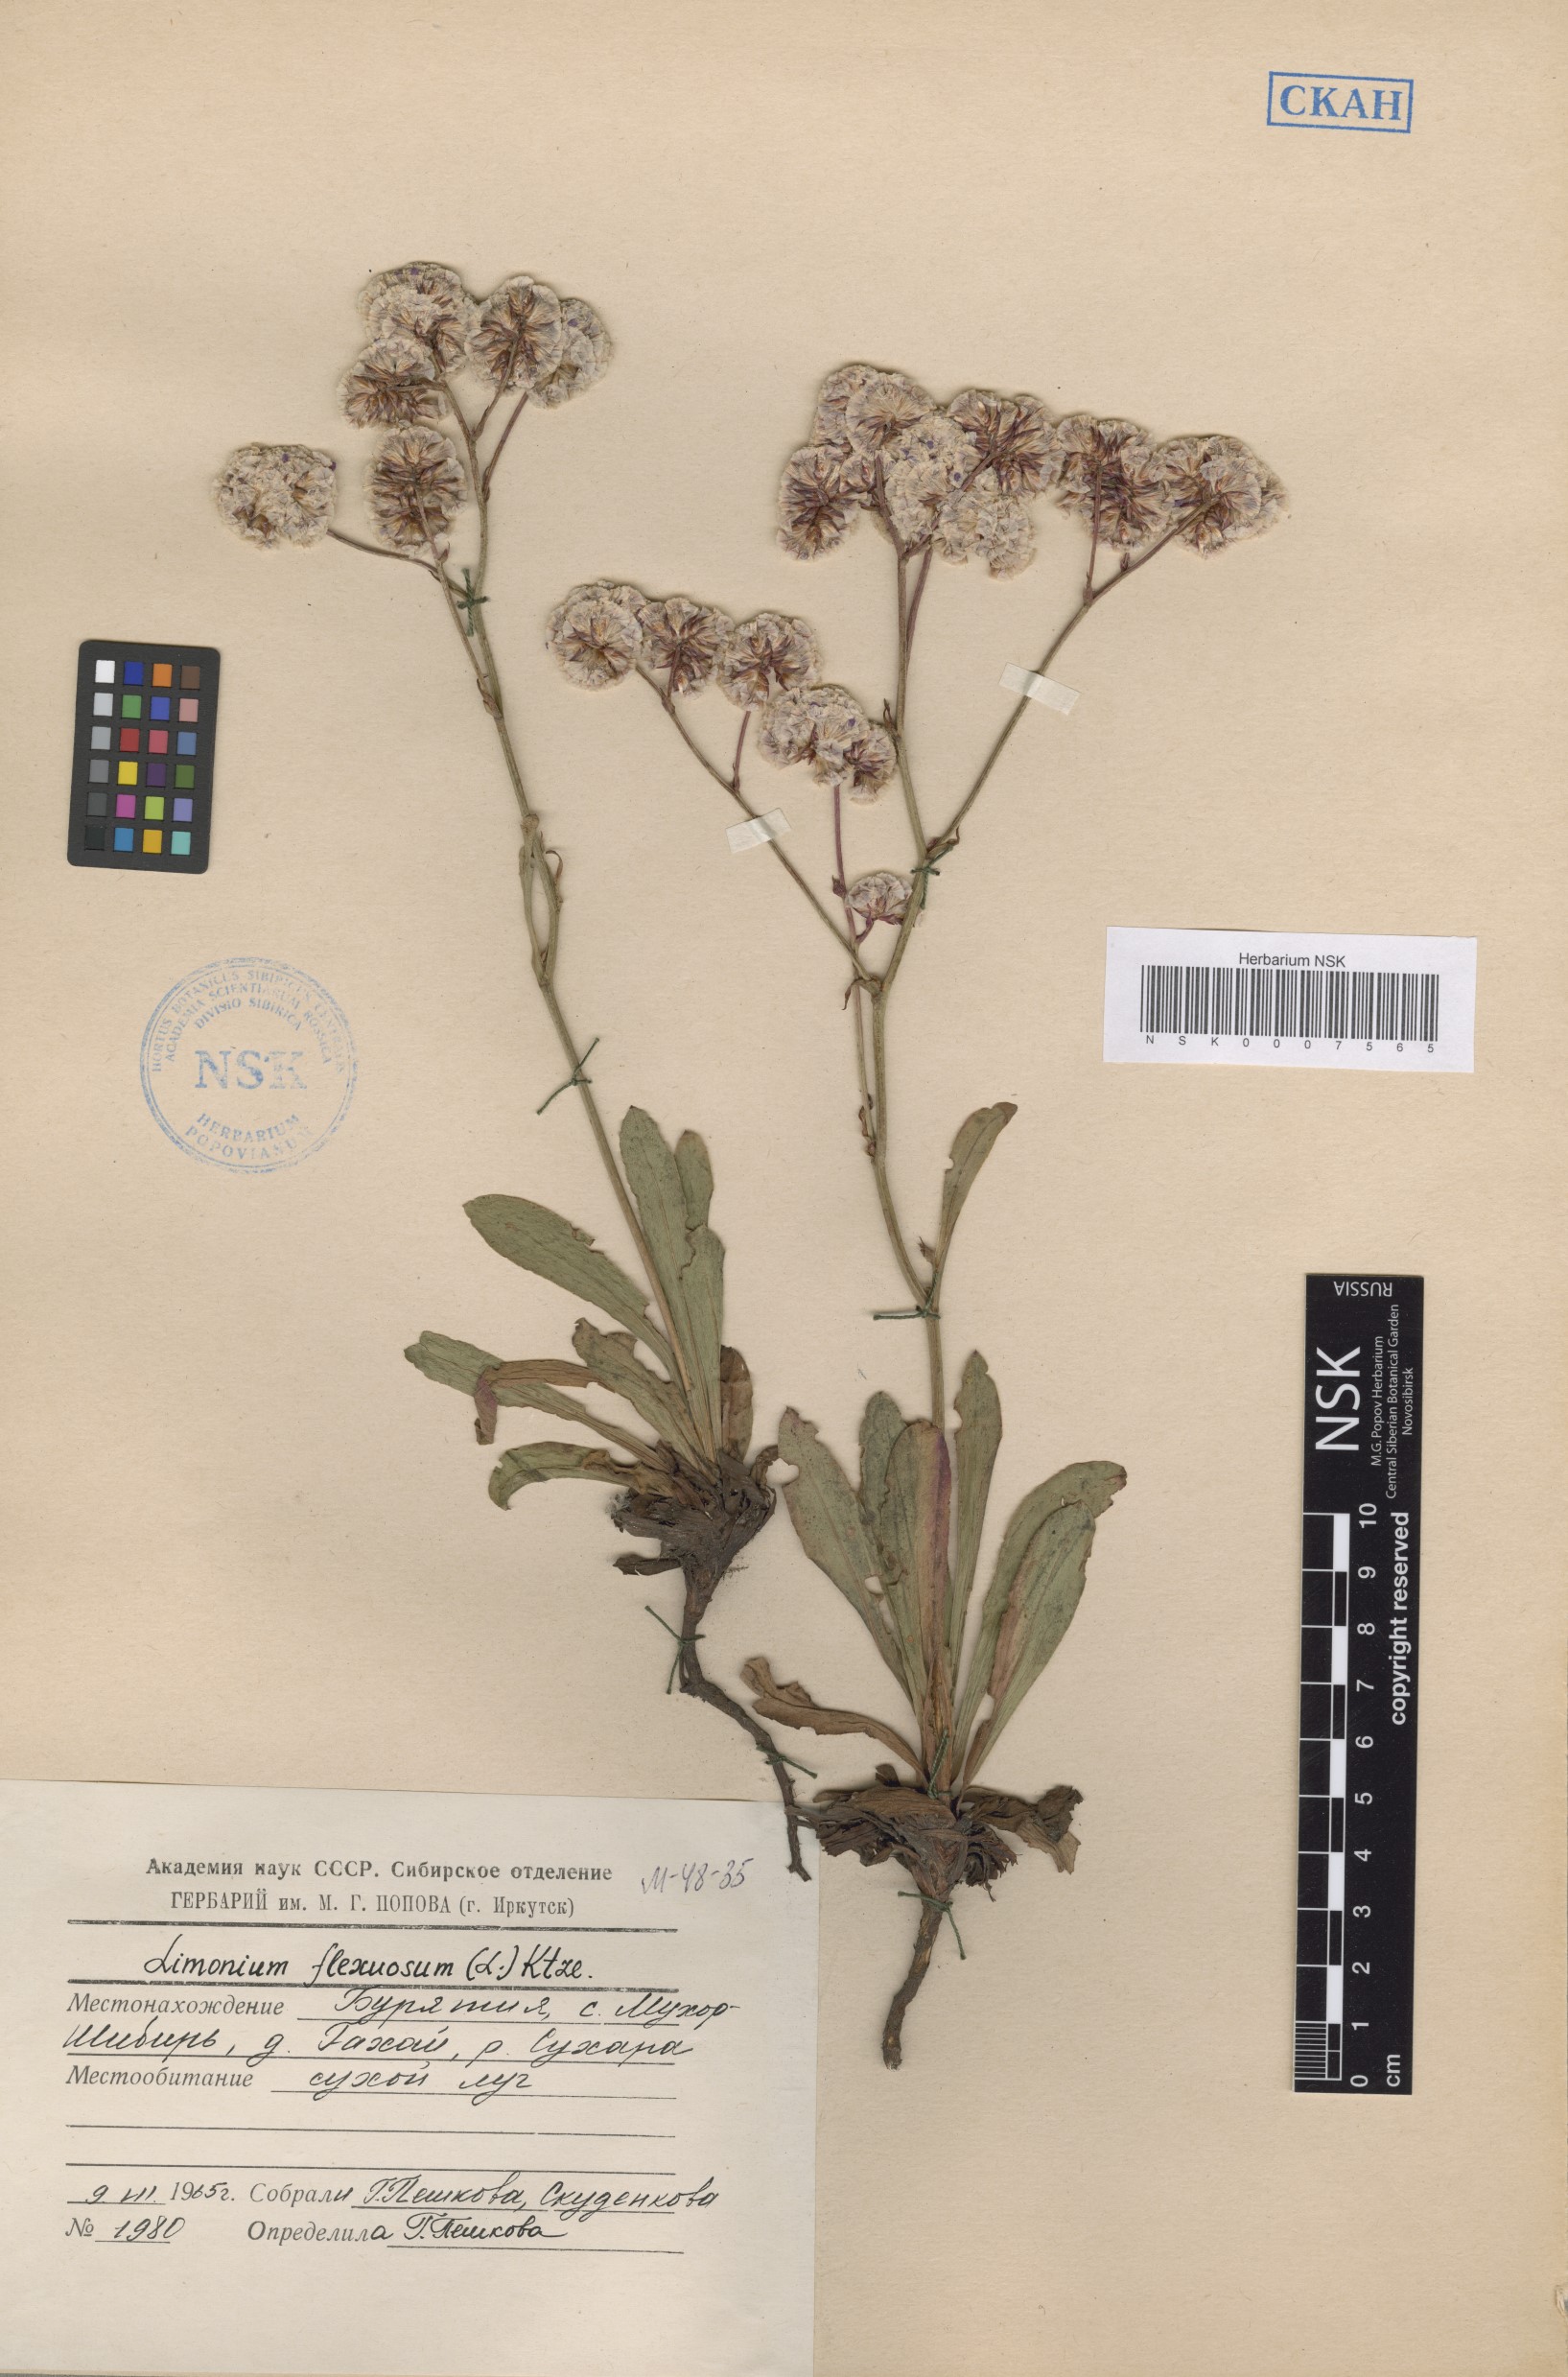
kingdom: Plantae
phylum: Tracheophyta
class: Magnoliopsida
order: Caryophyllales
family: Plumbaginaceae
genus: Limonium
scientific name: Limonium flexuosum
